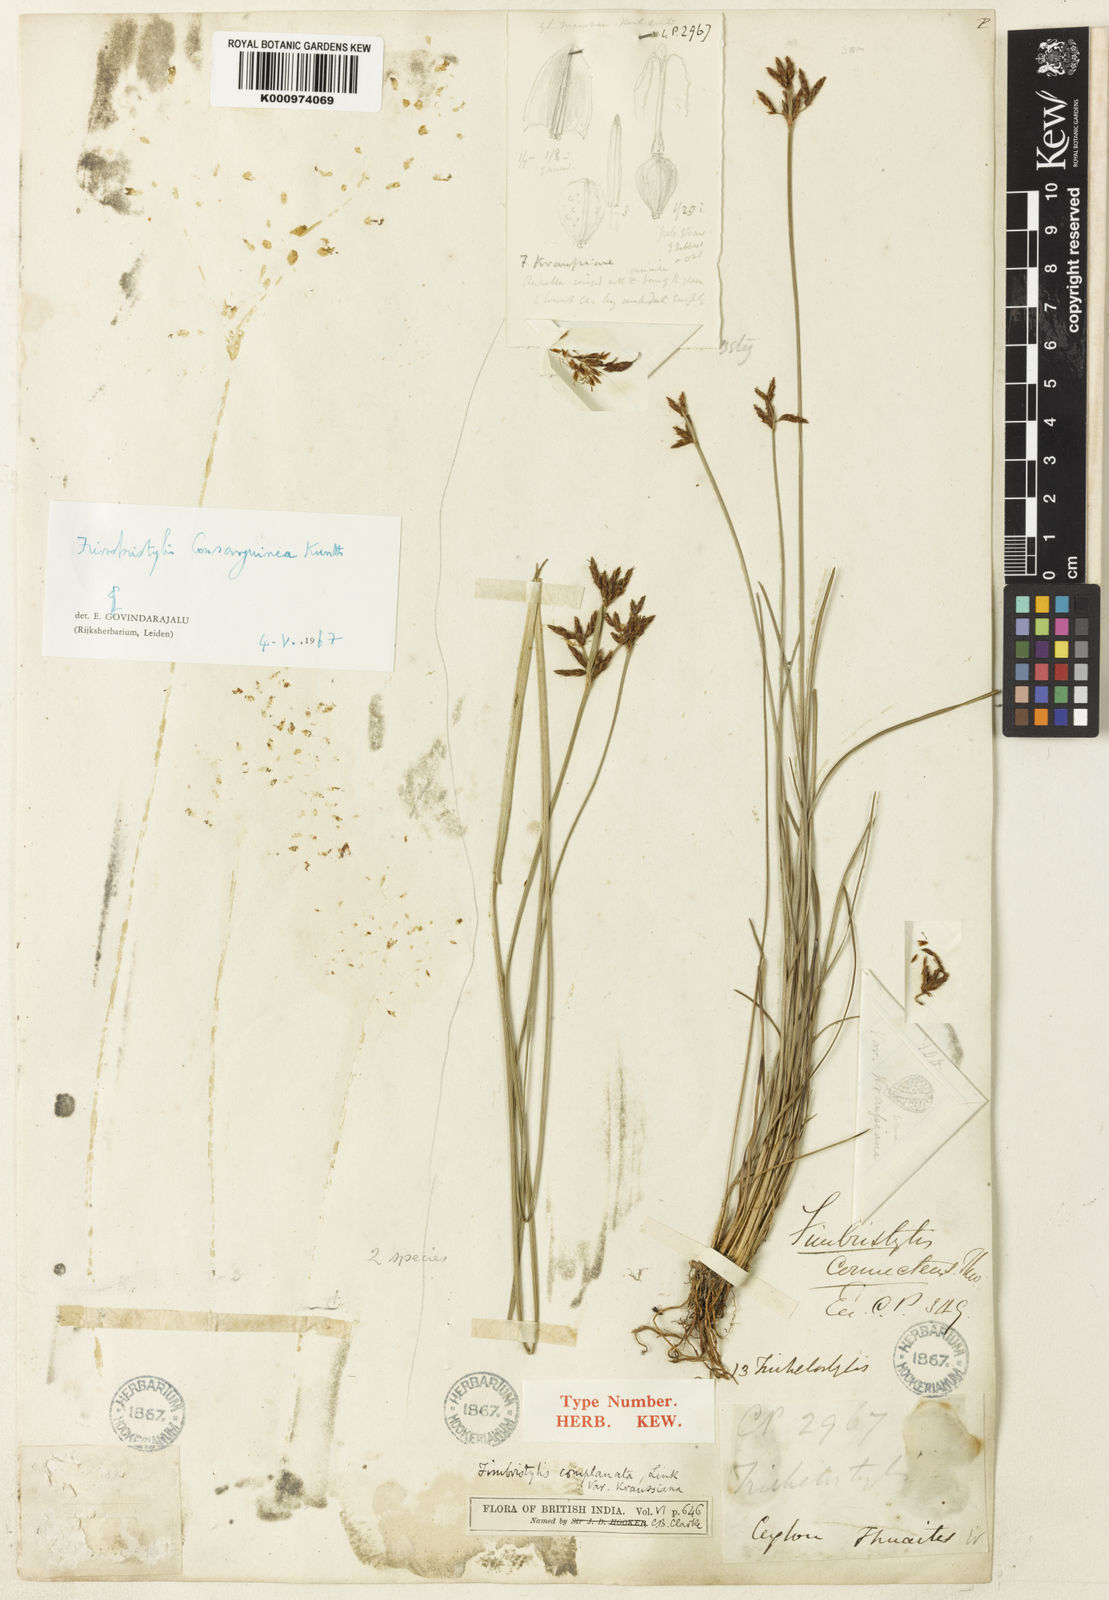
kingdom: Plantae
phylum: Tracheophyta
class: Liliopsida
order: Poales
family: Cyperaceae
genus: Fimbristylis
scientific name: Fimbristylis consanguinea
